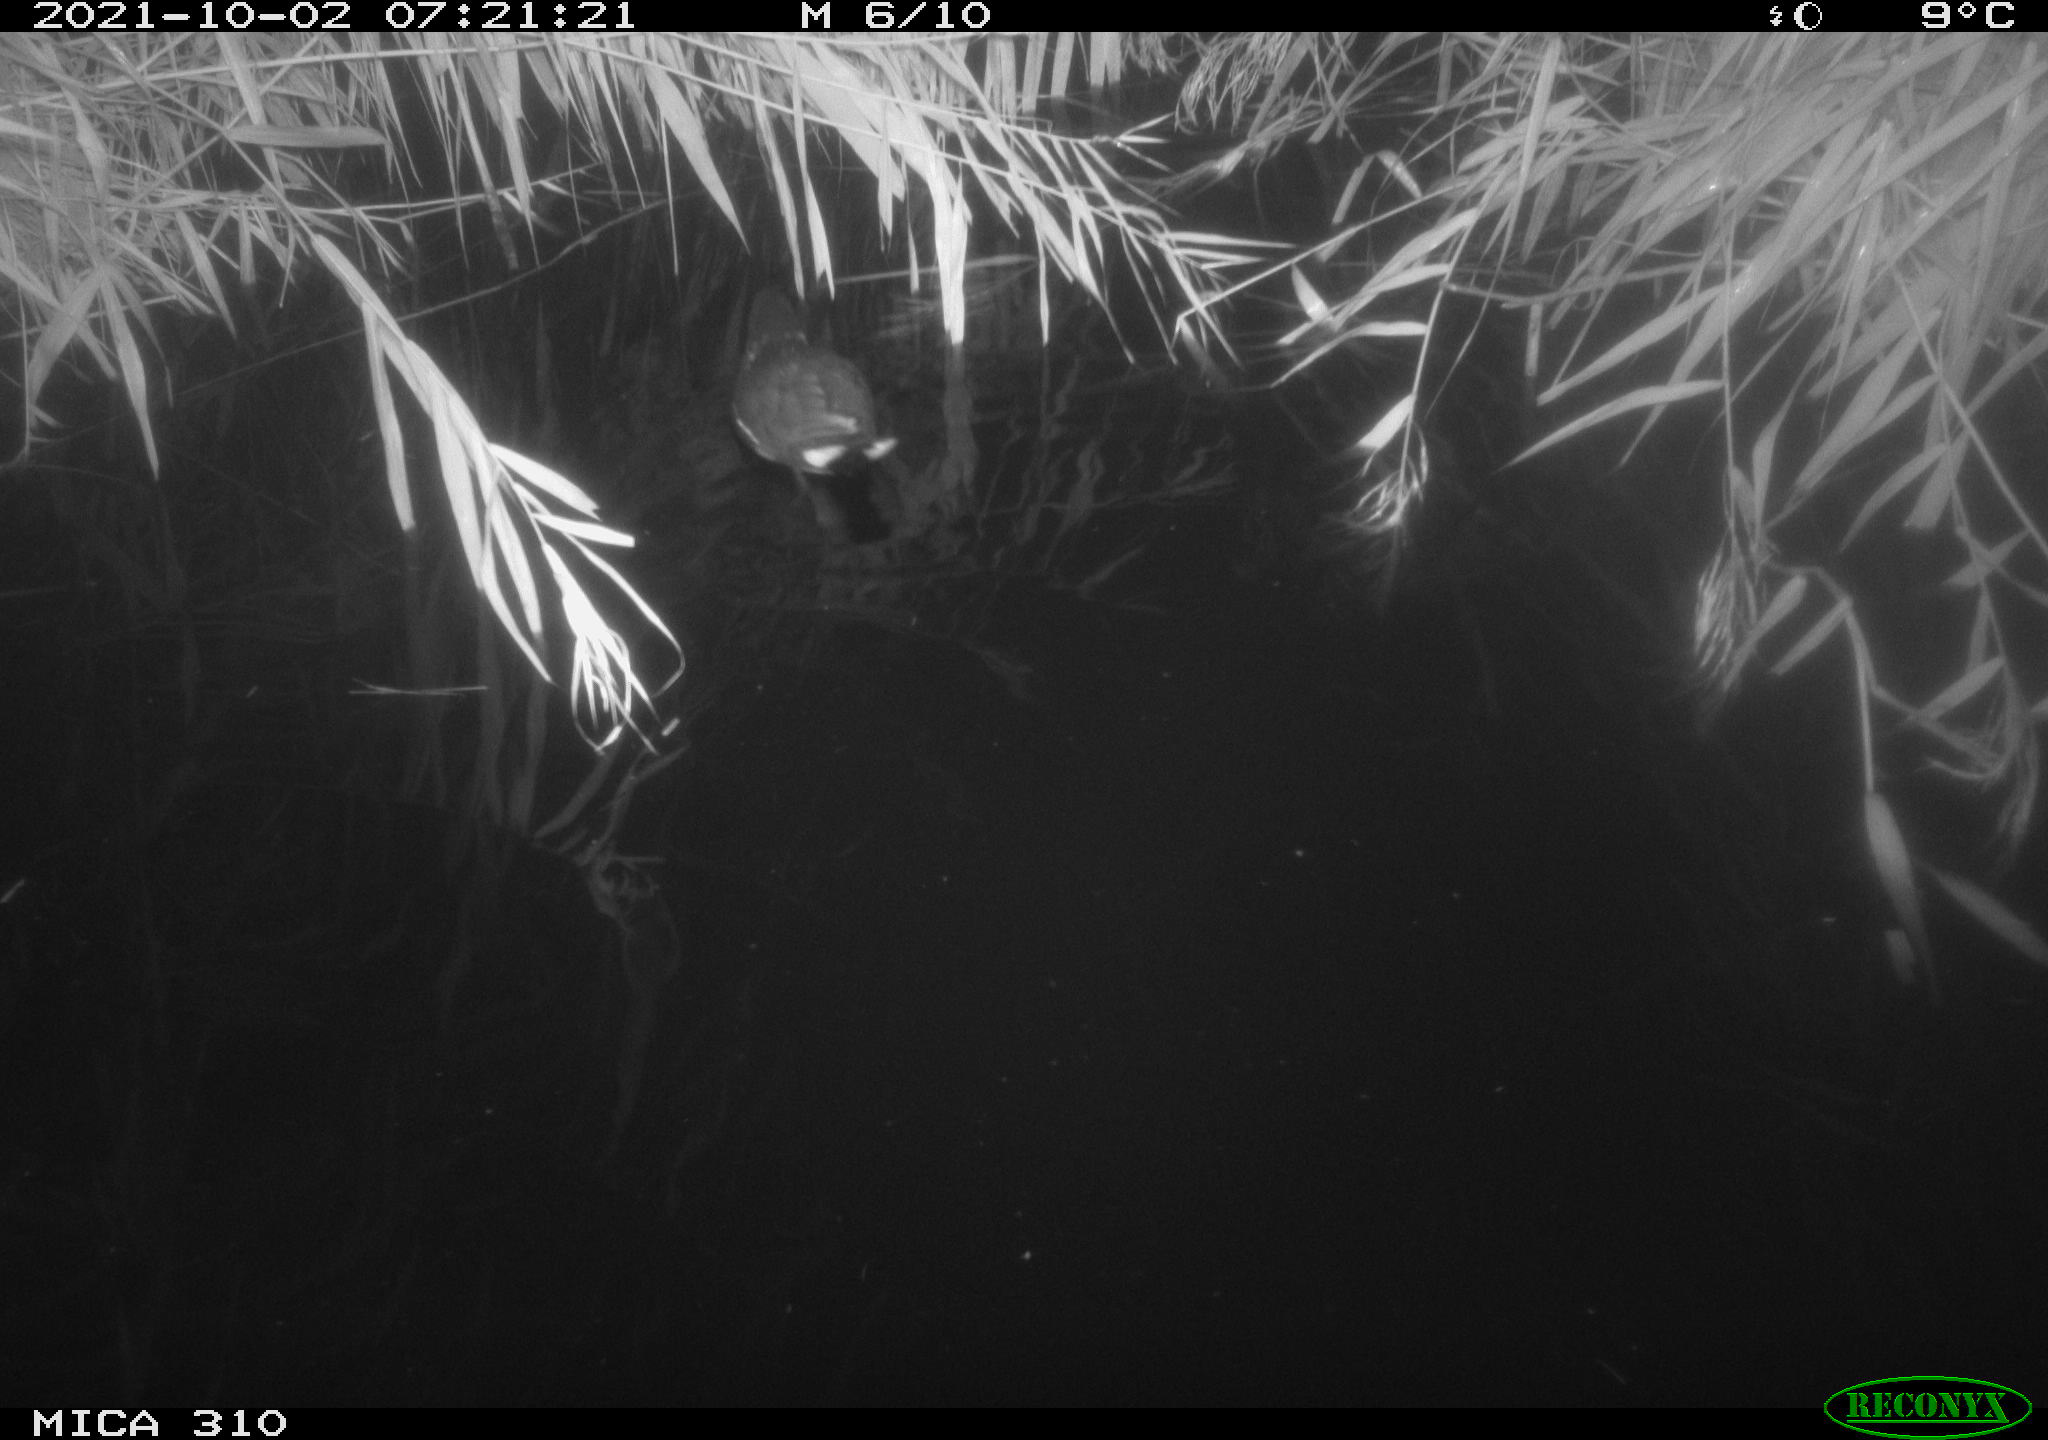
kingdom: Animalia
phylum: Chordata
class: Aves
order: Gruiformes
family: Rallidae
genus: Gallinula
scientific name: Gallinula chloropus
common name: Common moorhen
